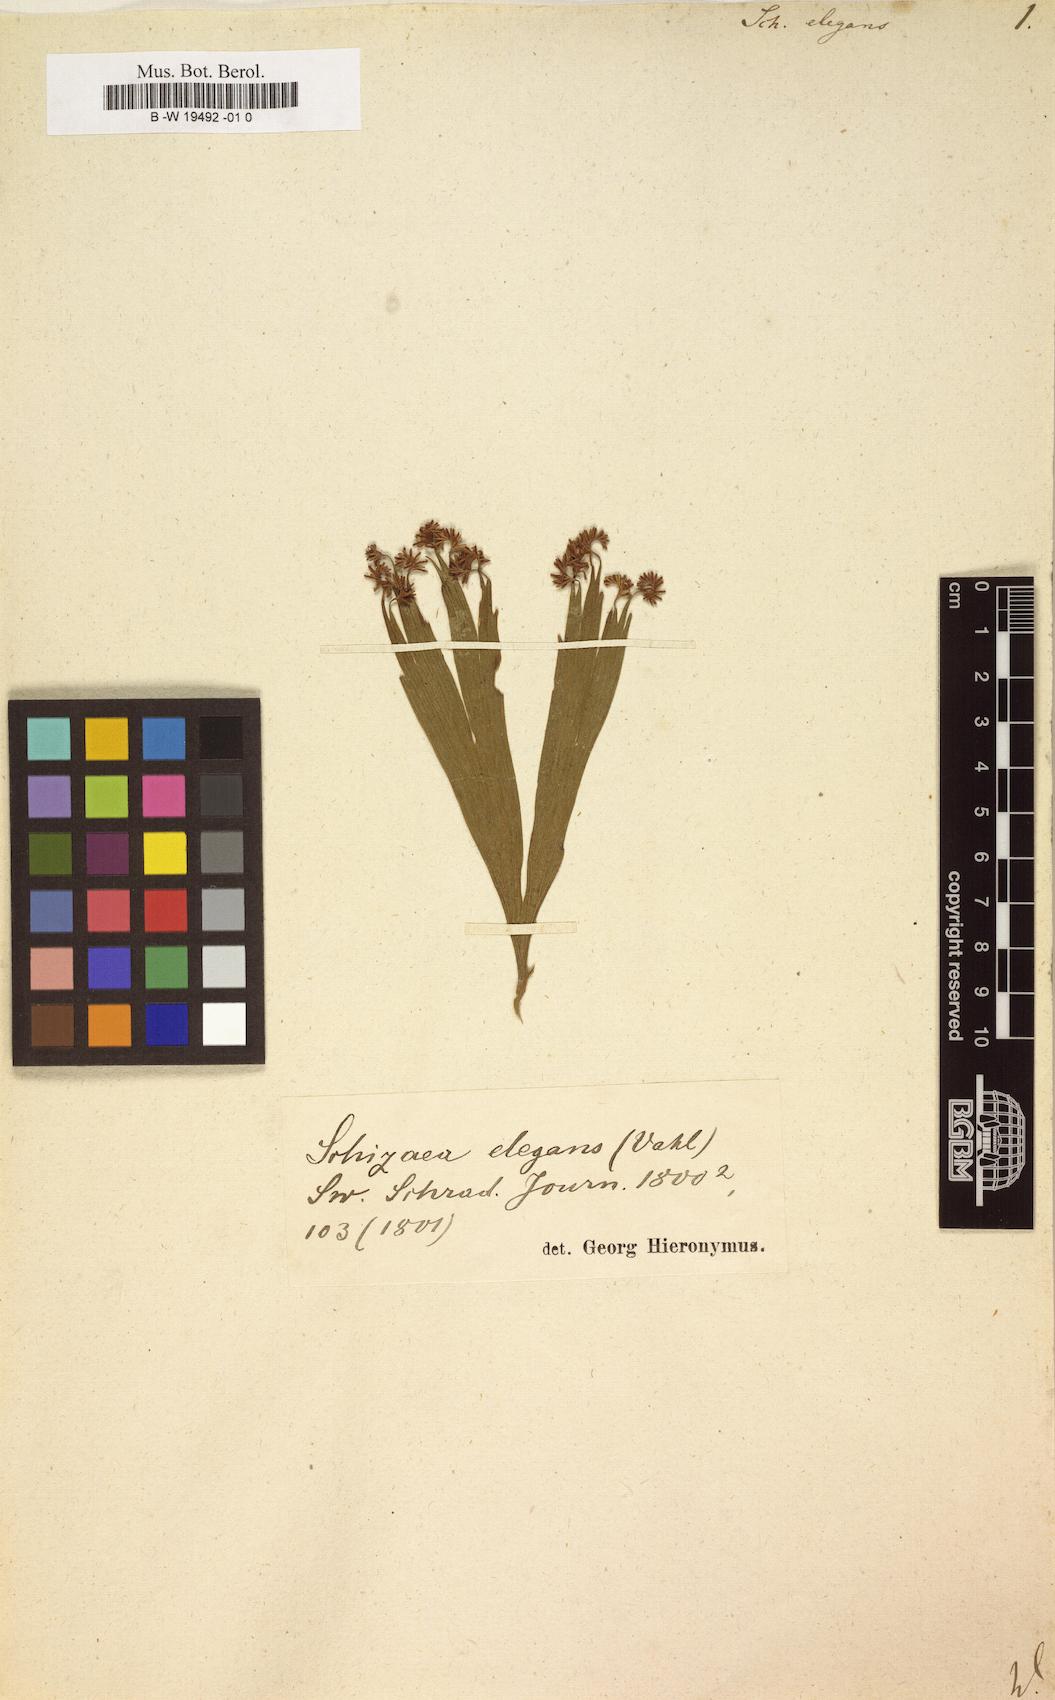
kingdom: Plantae
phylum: Tracheophyta
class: Polypodiopsida
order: Schizaeales
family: Schizaeaceae
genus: Schizaea
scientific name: Schizaea elegans
